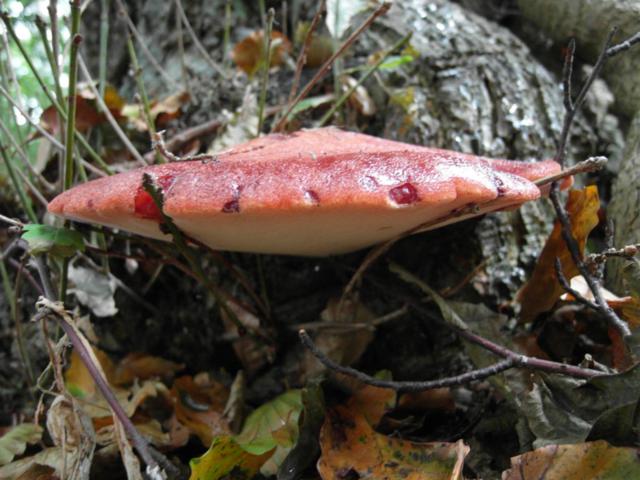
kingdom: Fungi
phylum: Basidiomycota
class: Agaricomycetes
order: Agaricales
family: Fistulinaceae
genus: Fistulina
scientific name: Fistulina hepatica
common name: oksetunge
